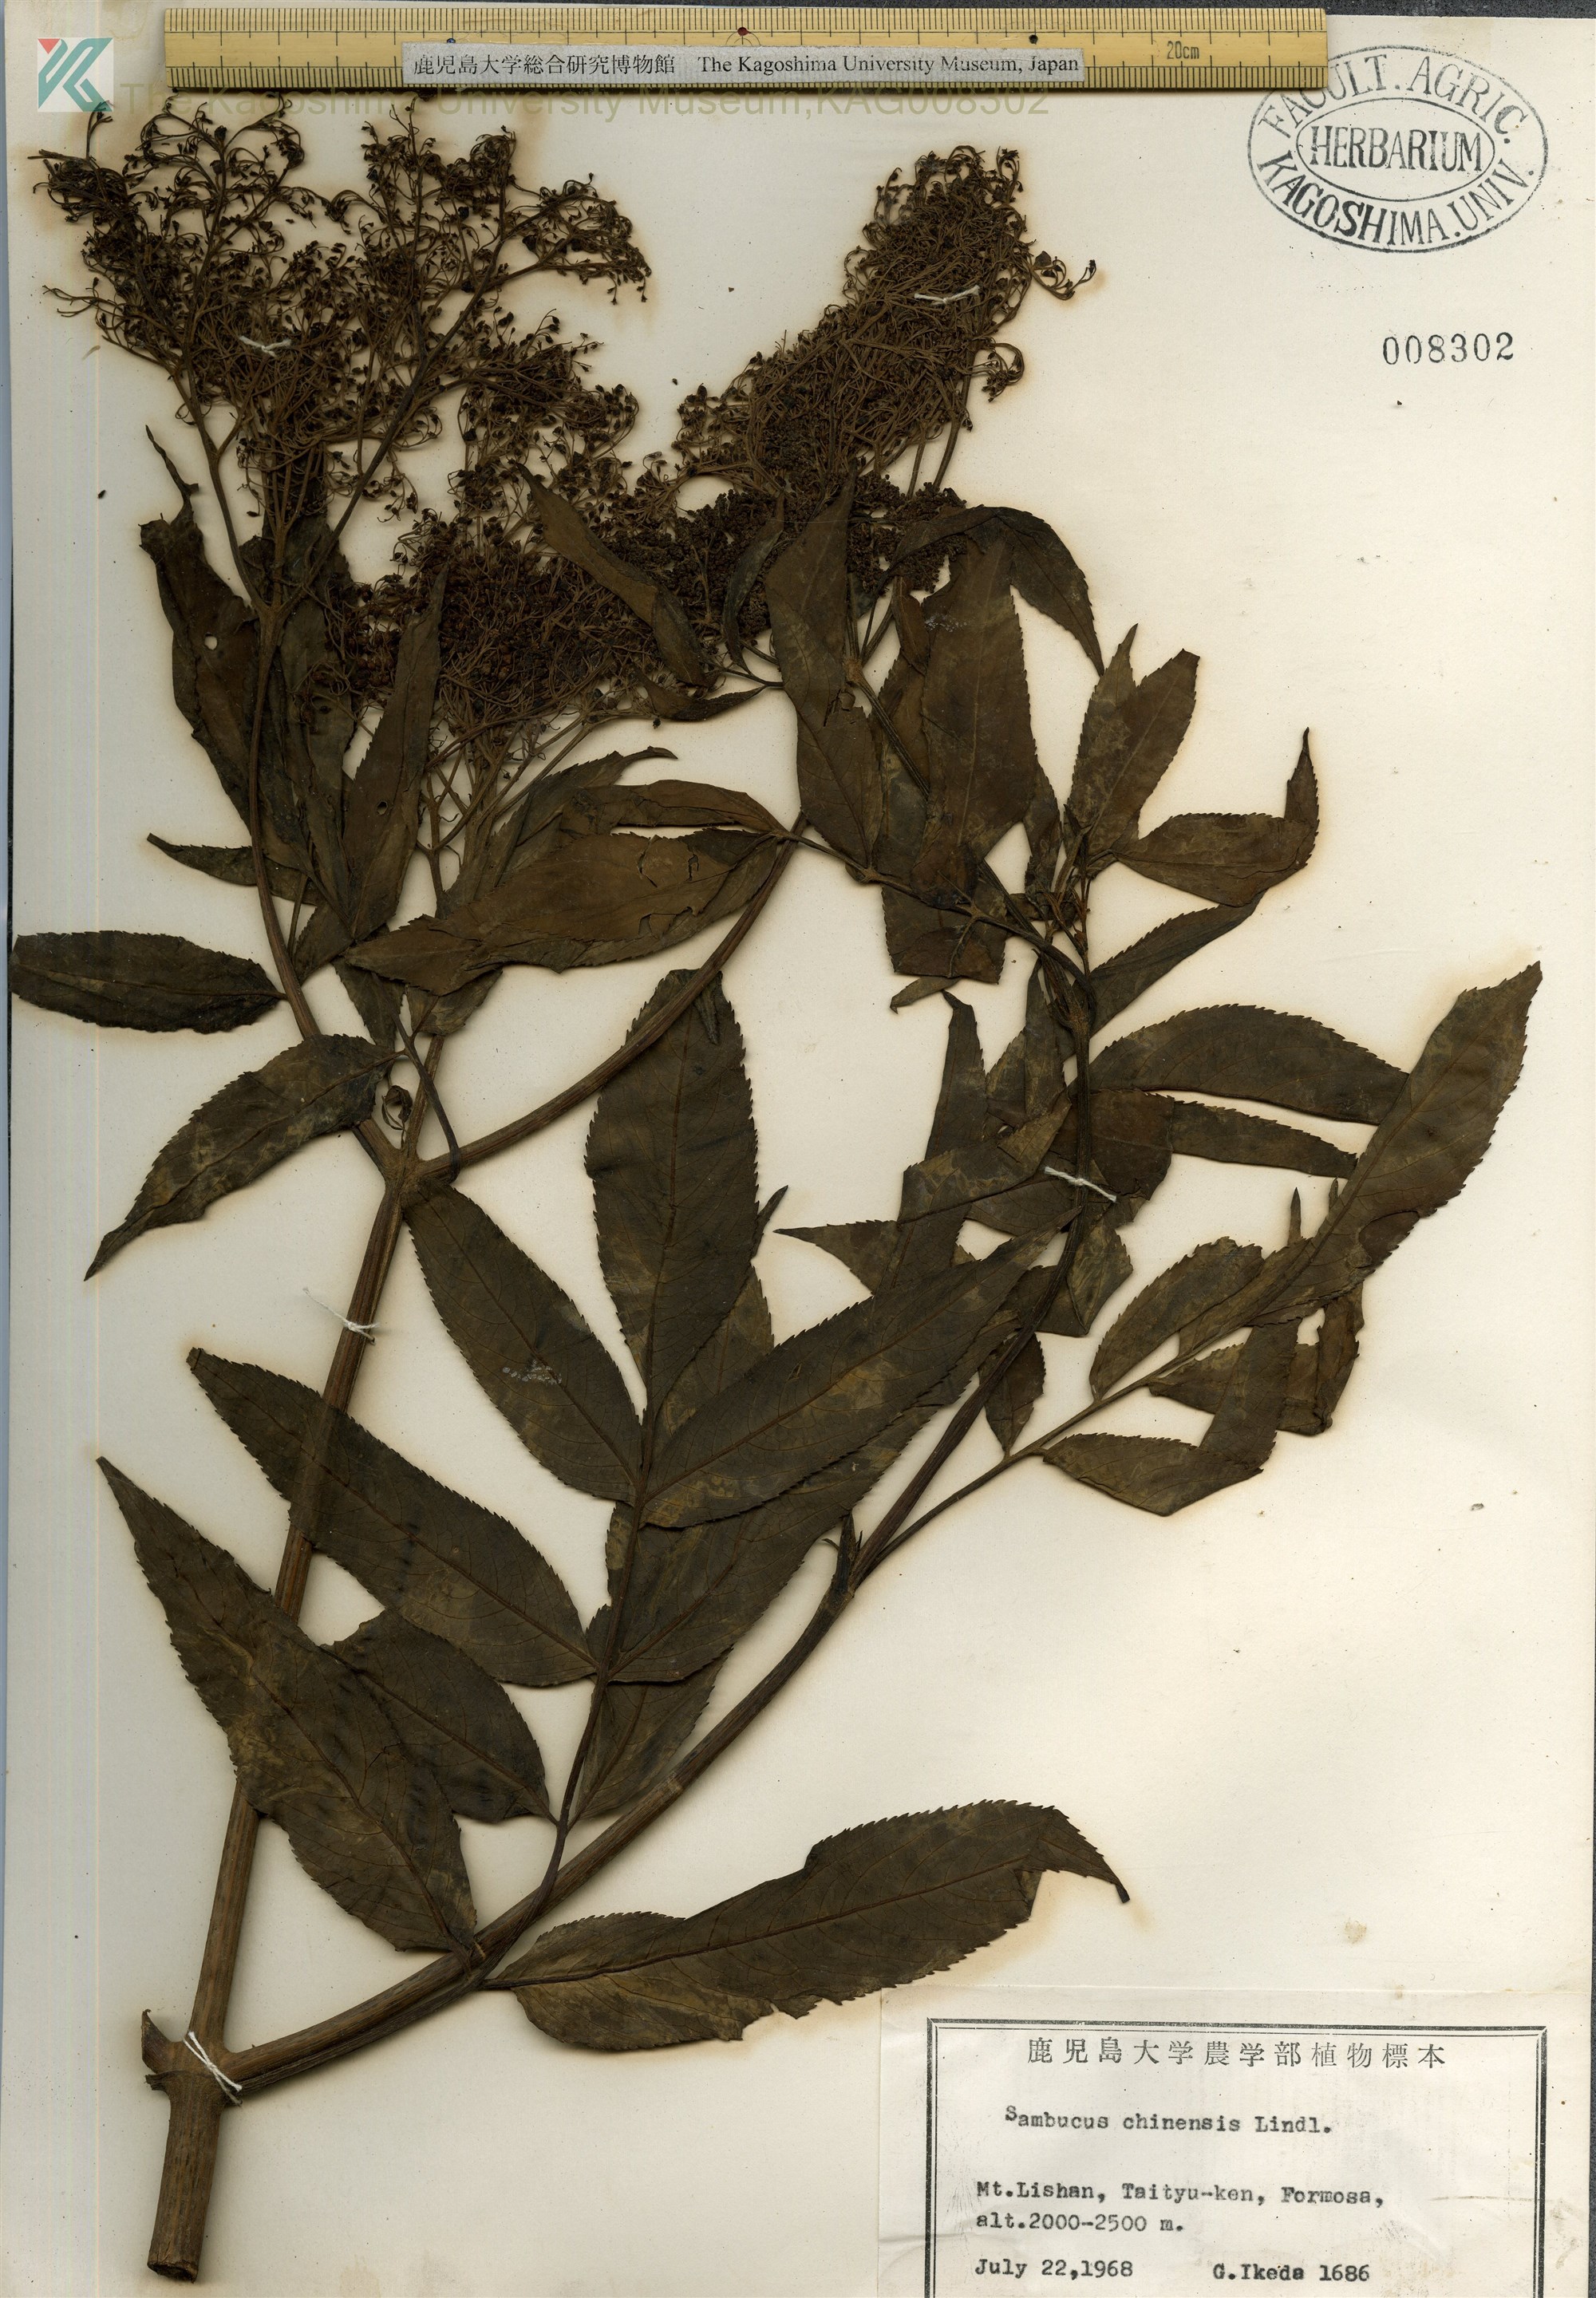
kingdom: Plantae
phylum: Tracheophyta
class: Magnoliopsida
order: Dipsacales
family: Viburnaceae
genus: Sambucus
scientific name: Sambucus javanica
